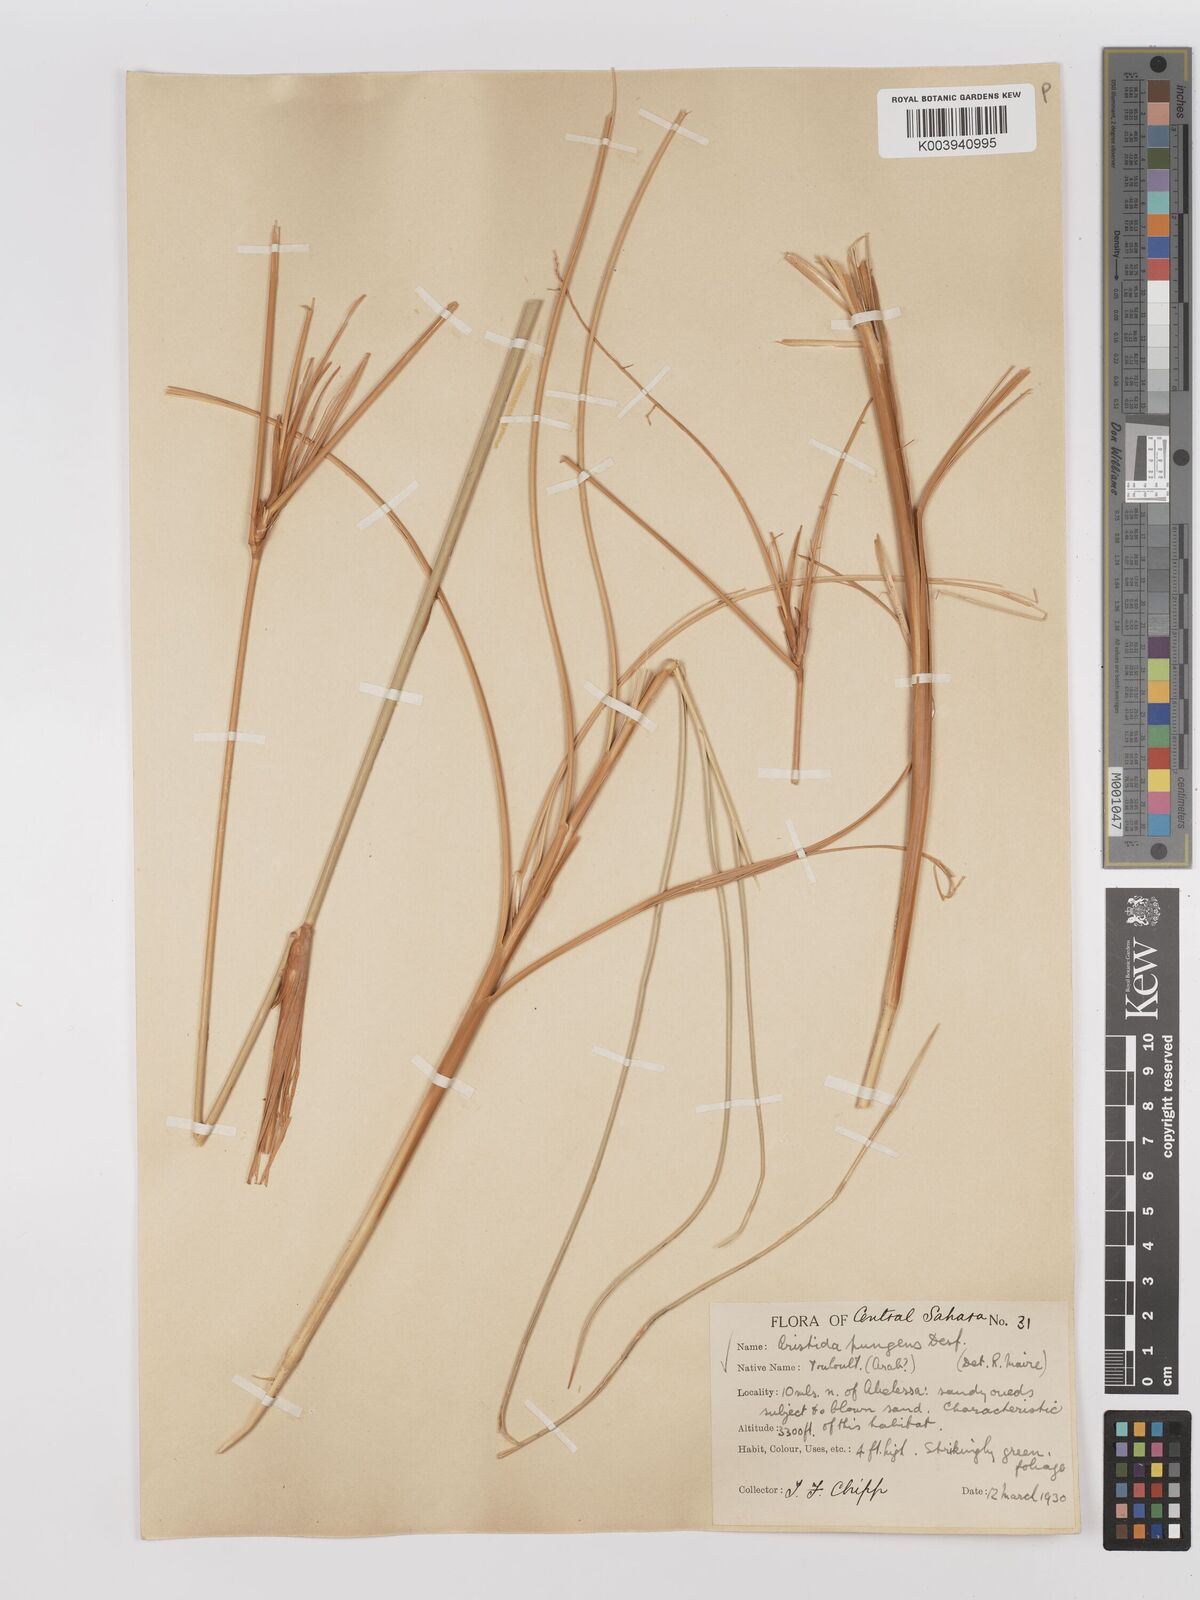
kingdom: Plantae
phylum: Tracheophyta
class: Liliopsida
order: Poales
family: Poaceae
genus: Stipagrostis
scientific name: Stipagrostis pungens
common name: Three-awn grass
